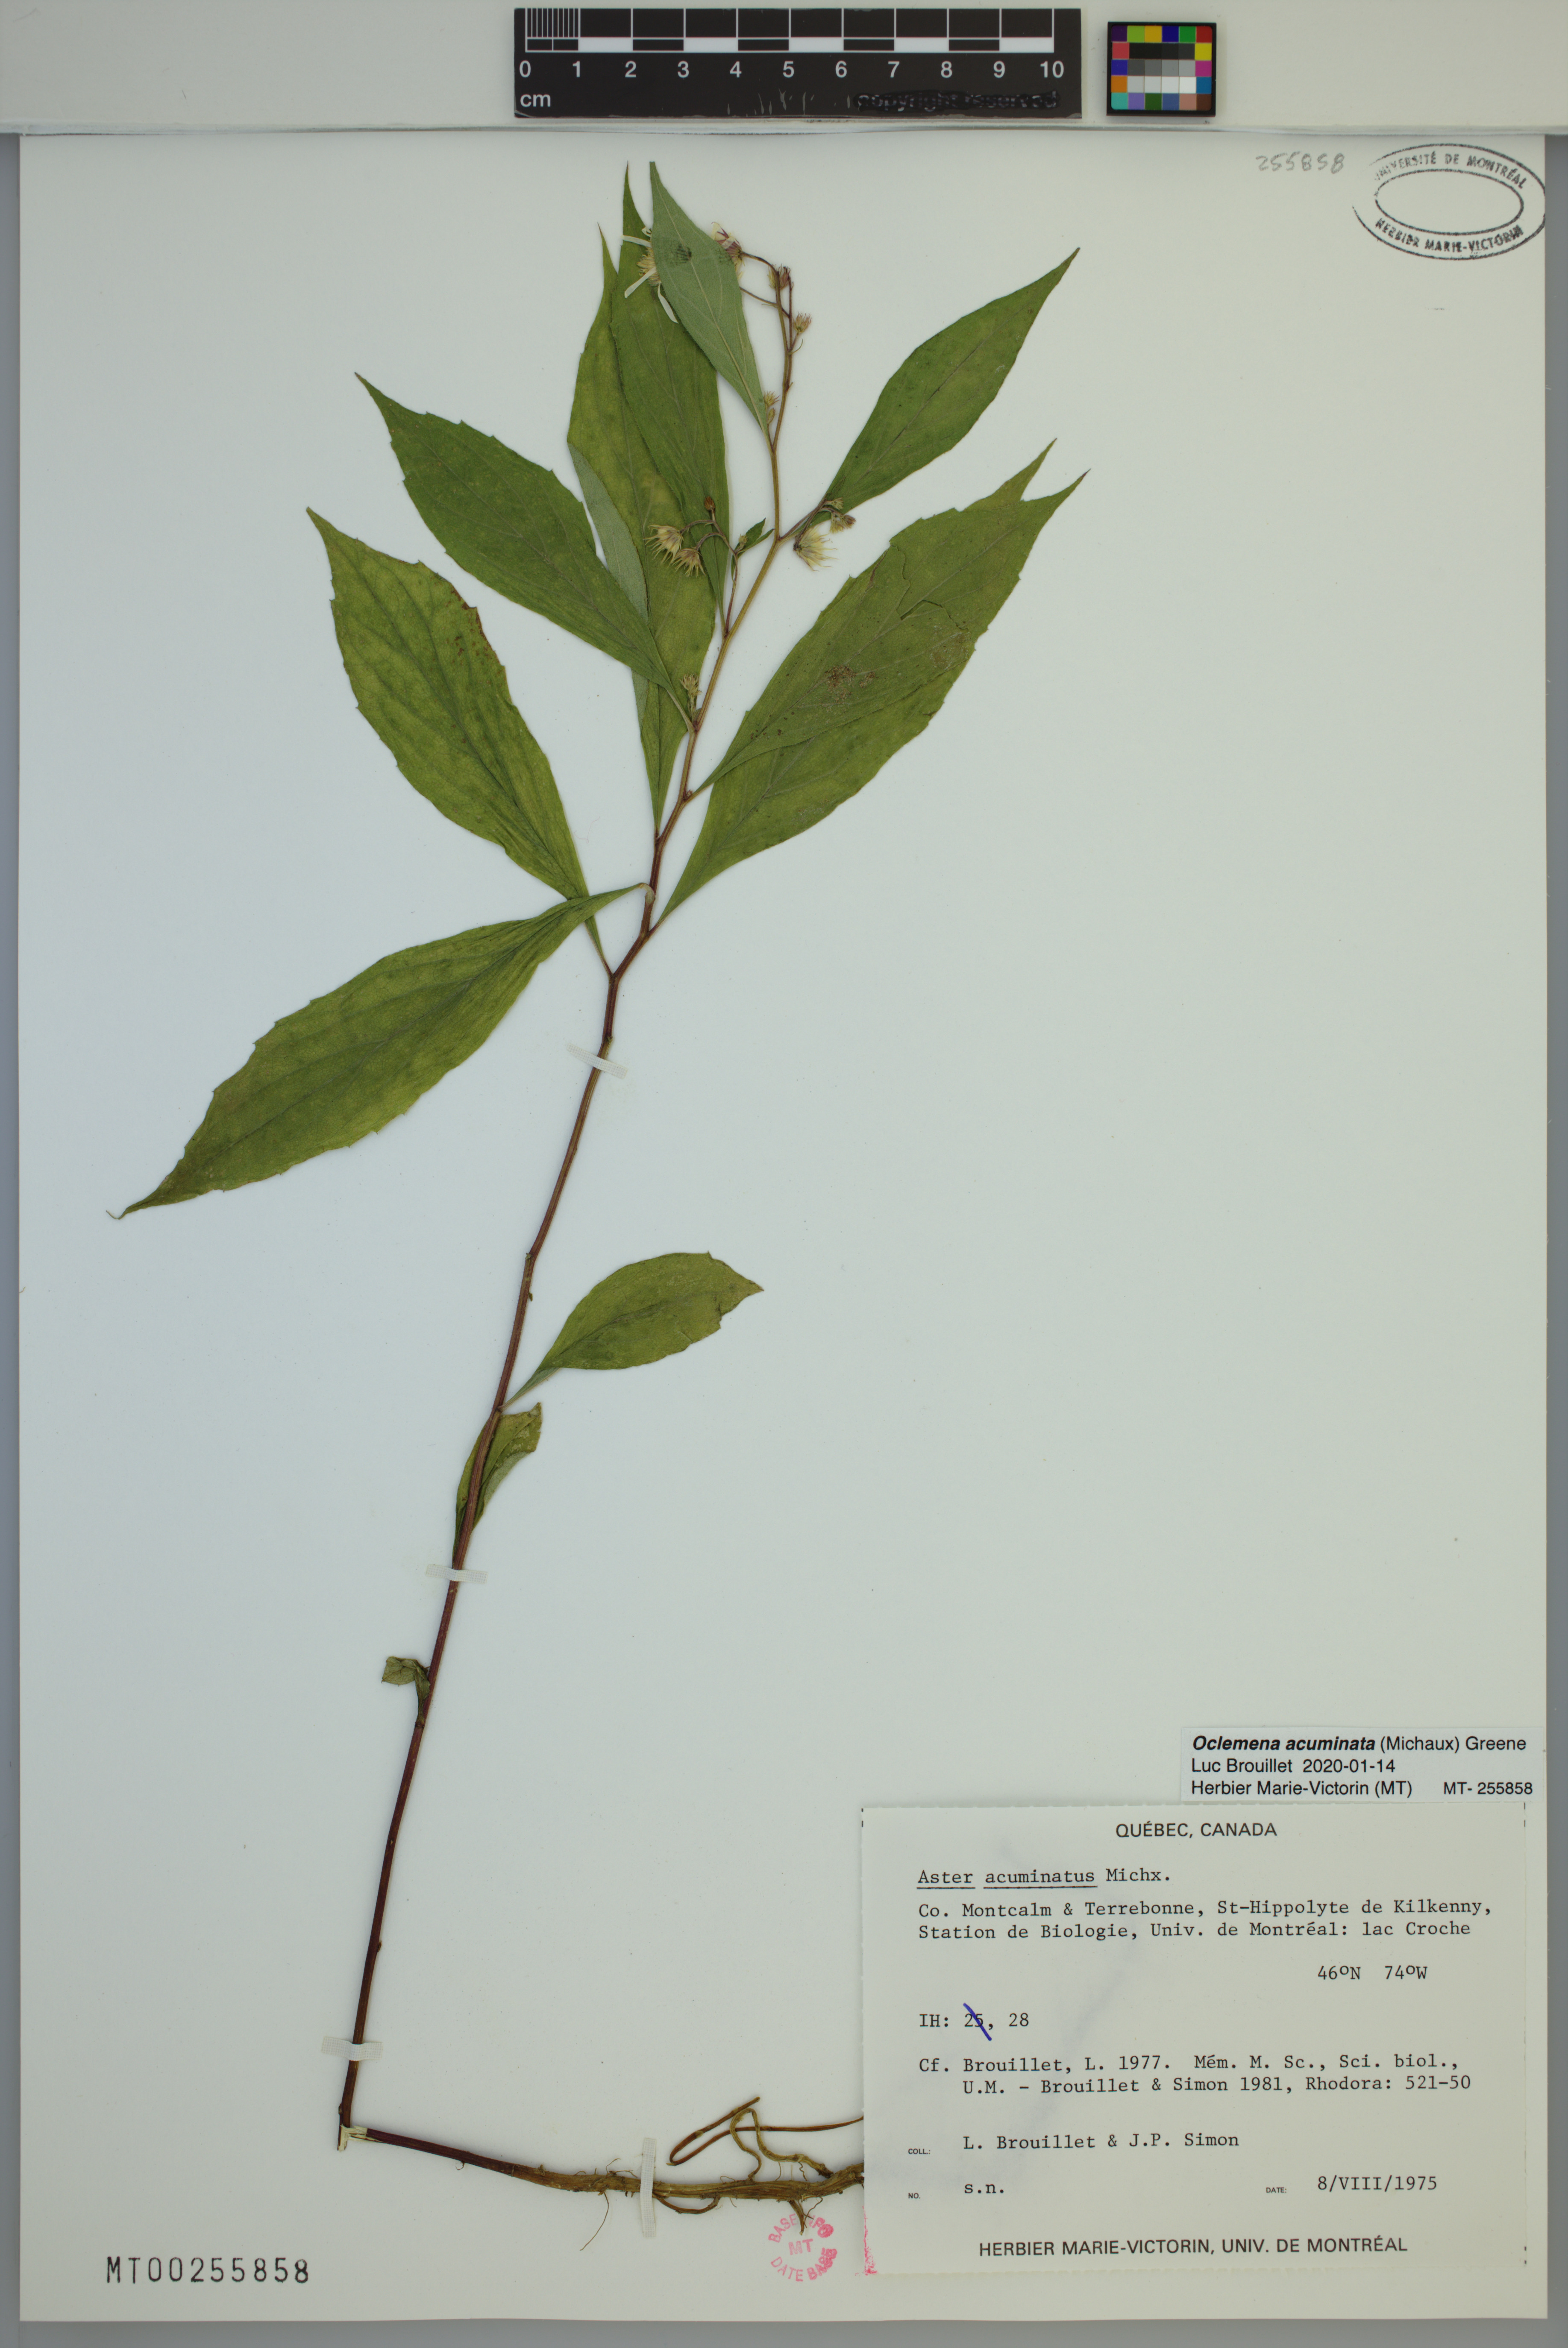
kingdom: Plantae
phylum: Tracheophyta
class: Magnoliopsida
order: Asterales
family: Asteraceae
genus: Oclemena
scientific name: Oclemena acuminata
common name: Mountain aster
